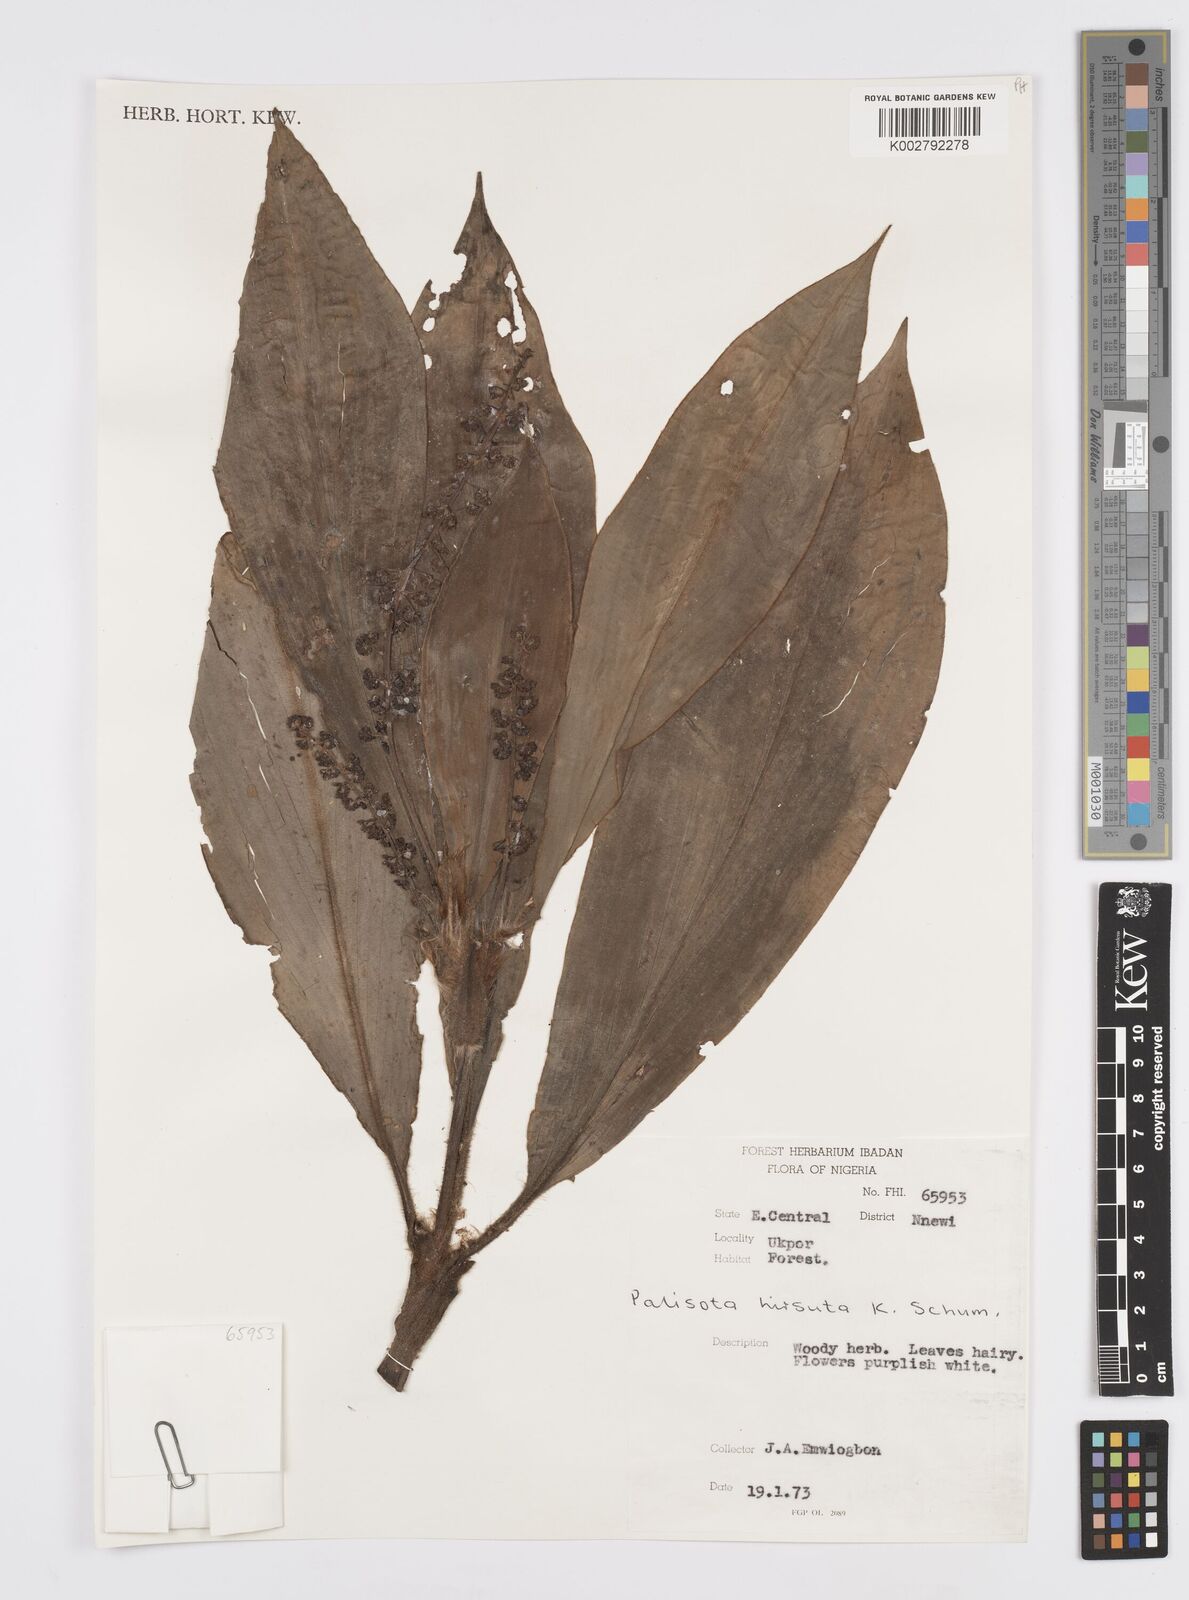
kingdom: Plantae
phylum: Tracheophyta
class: Liliopsida
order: Commelinales
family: Commelinaceae
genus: Palisota
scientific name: Palisota hirsuta
